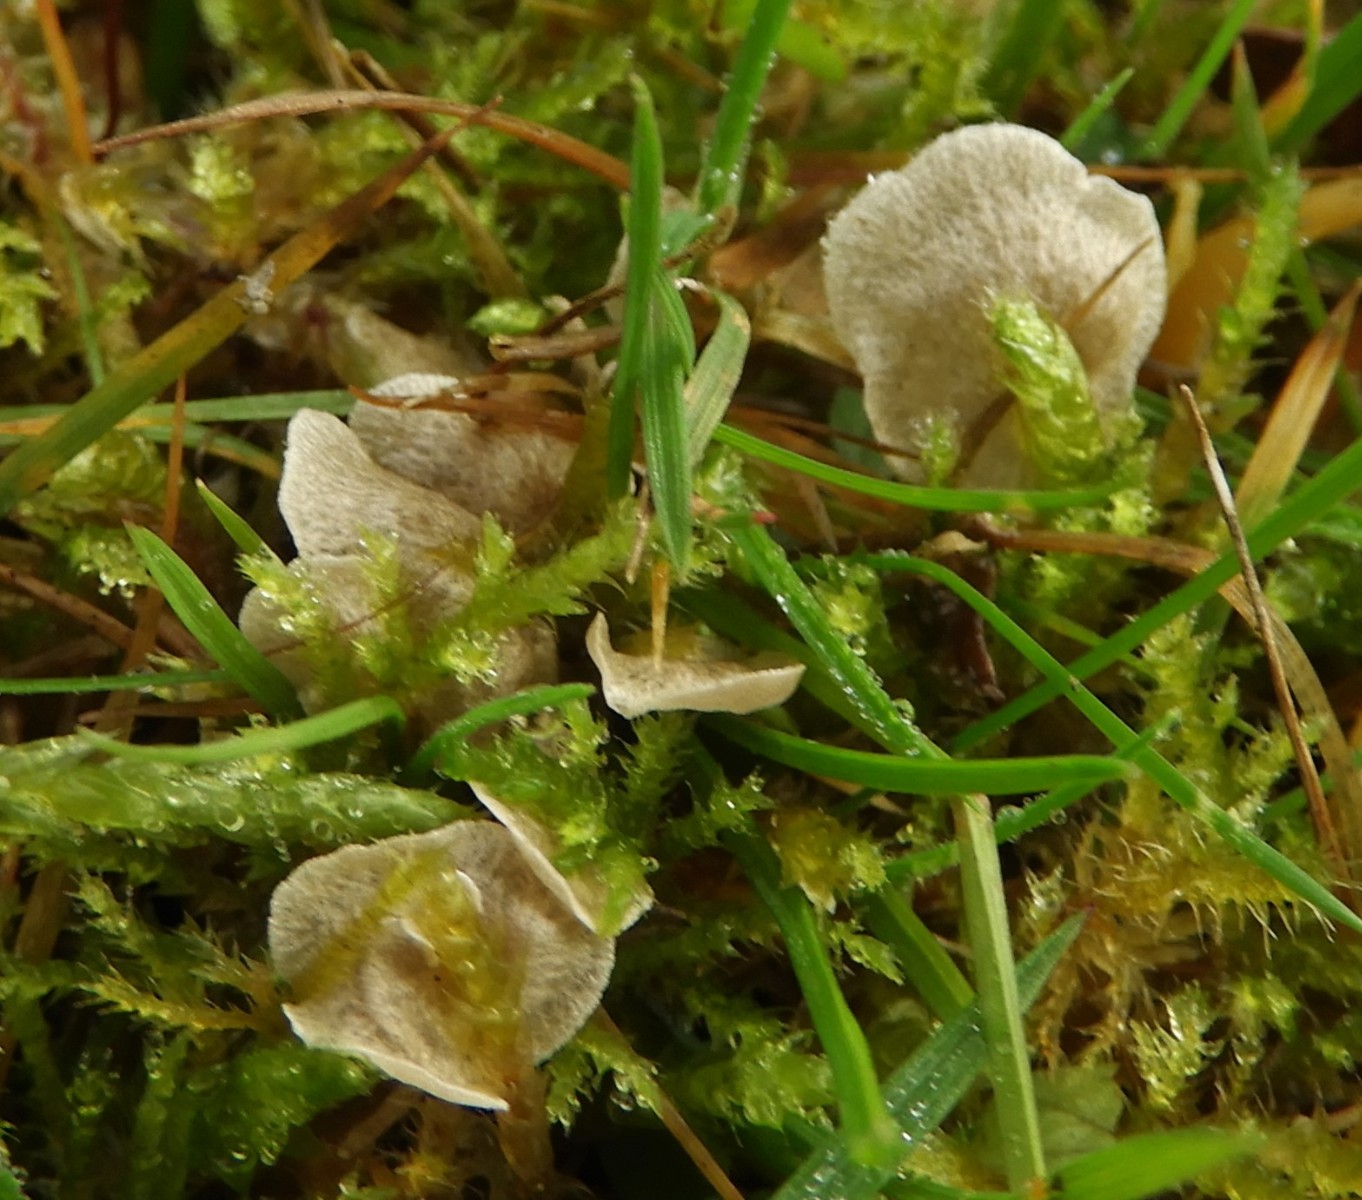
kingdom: Fungi
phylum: Basidiomycota
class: Agaricomycetes
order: Agaricales
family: Hygrophoraceae
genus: Arrhenia
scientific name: Arrhenia retiruga
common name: lille fontænehat
